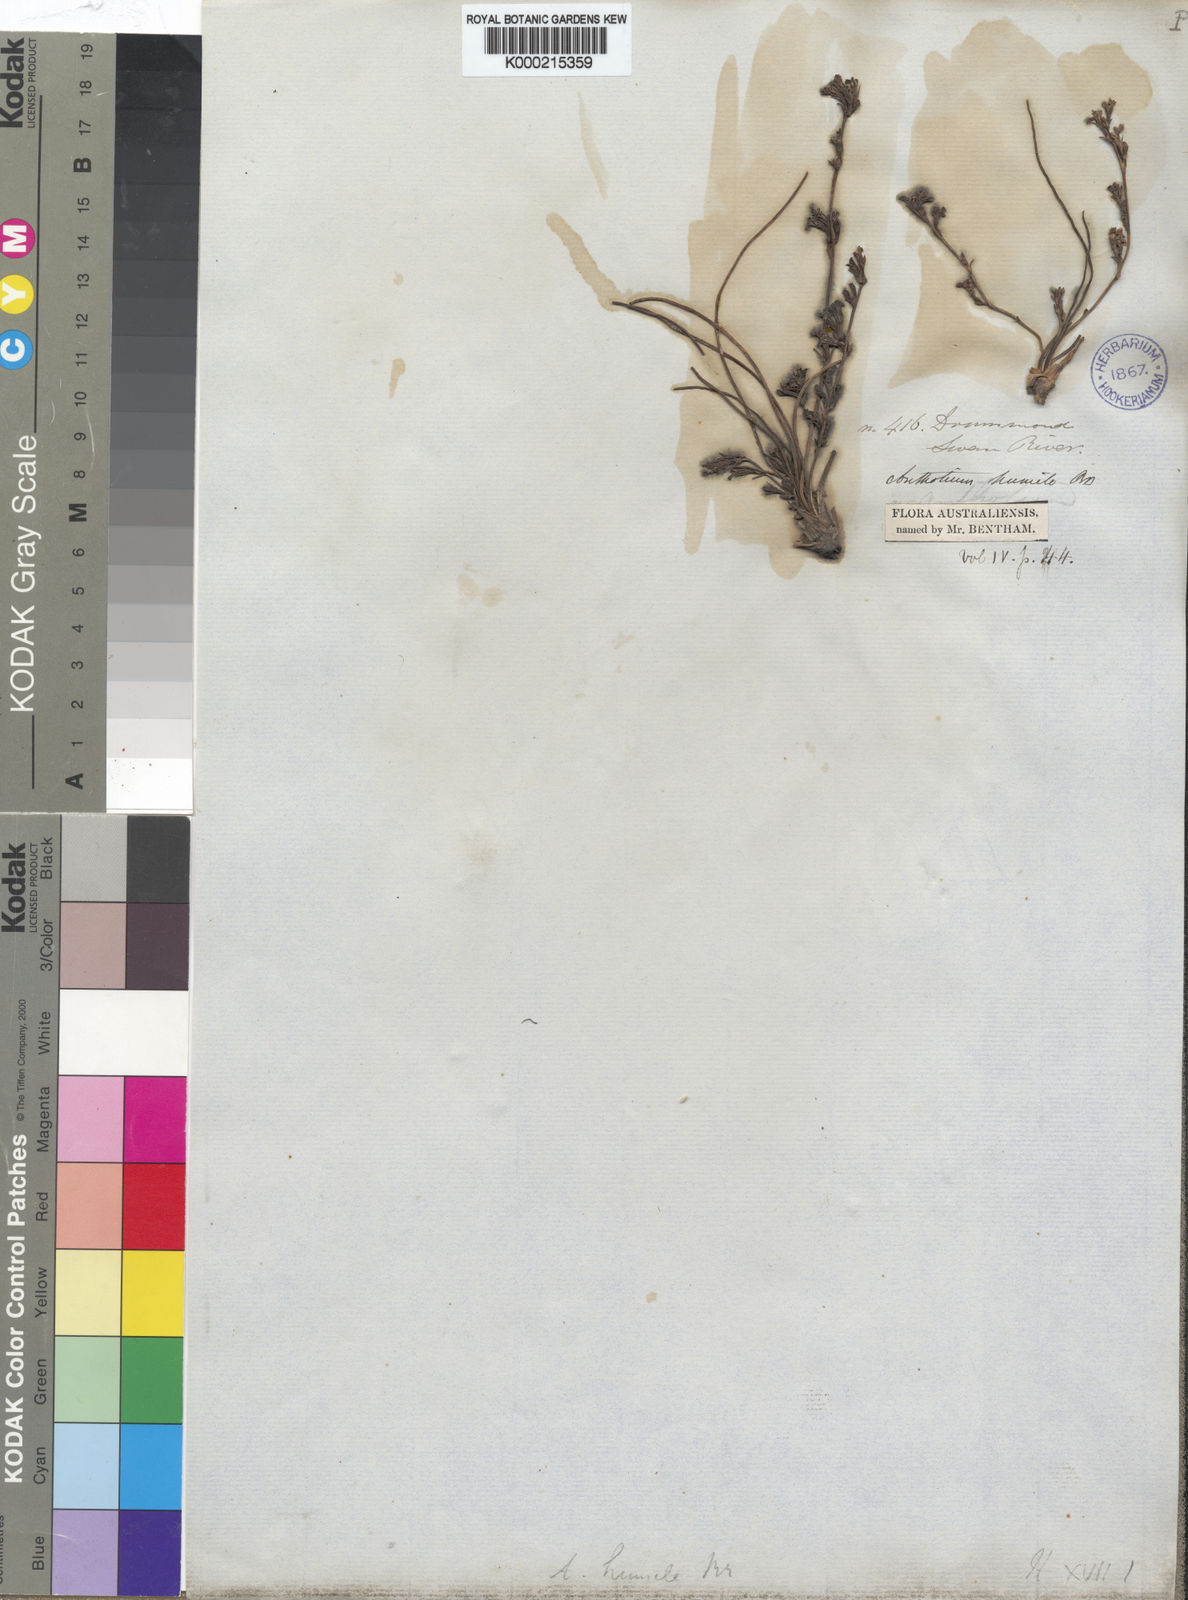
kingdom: Plantae
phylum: Tracheophyta
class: Magnoliopsida
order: Asterales
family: Goodeniaceae
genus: Anthotium
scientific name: Anthotium humile
